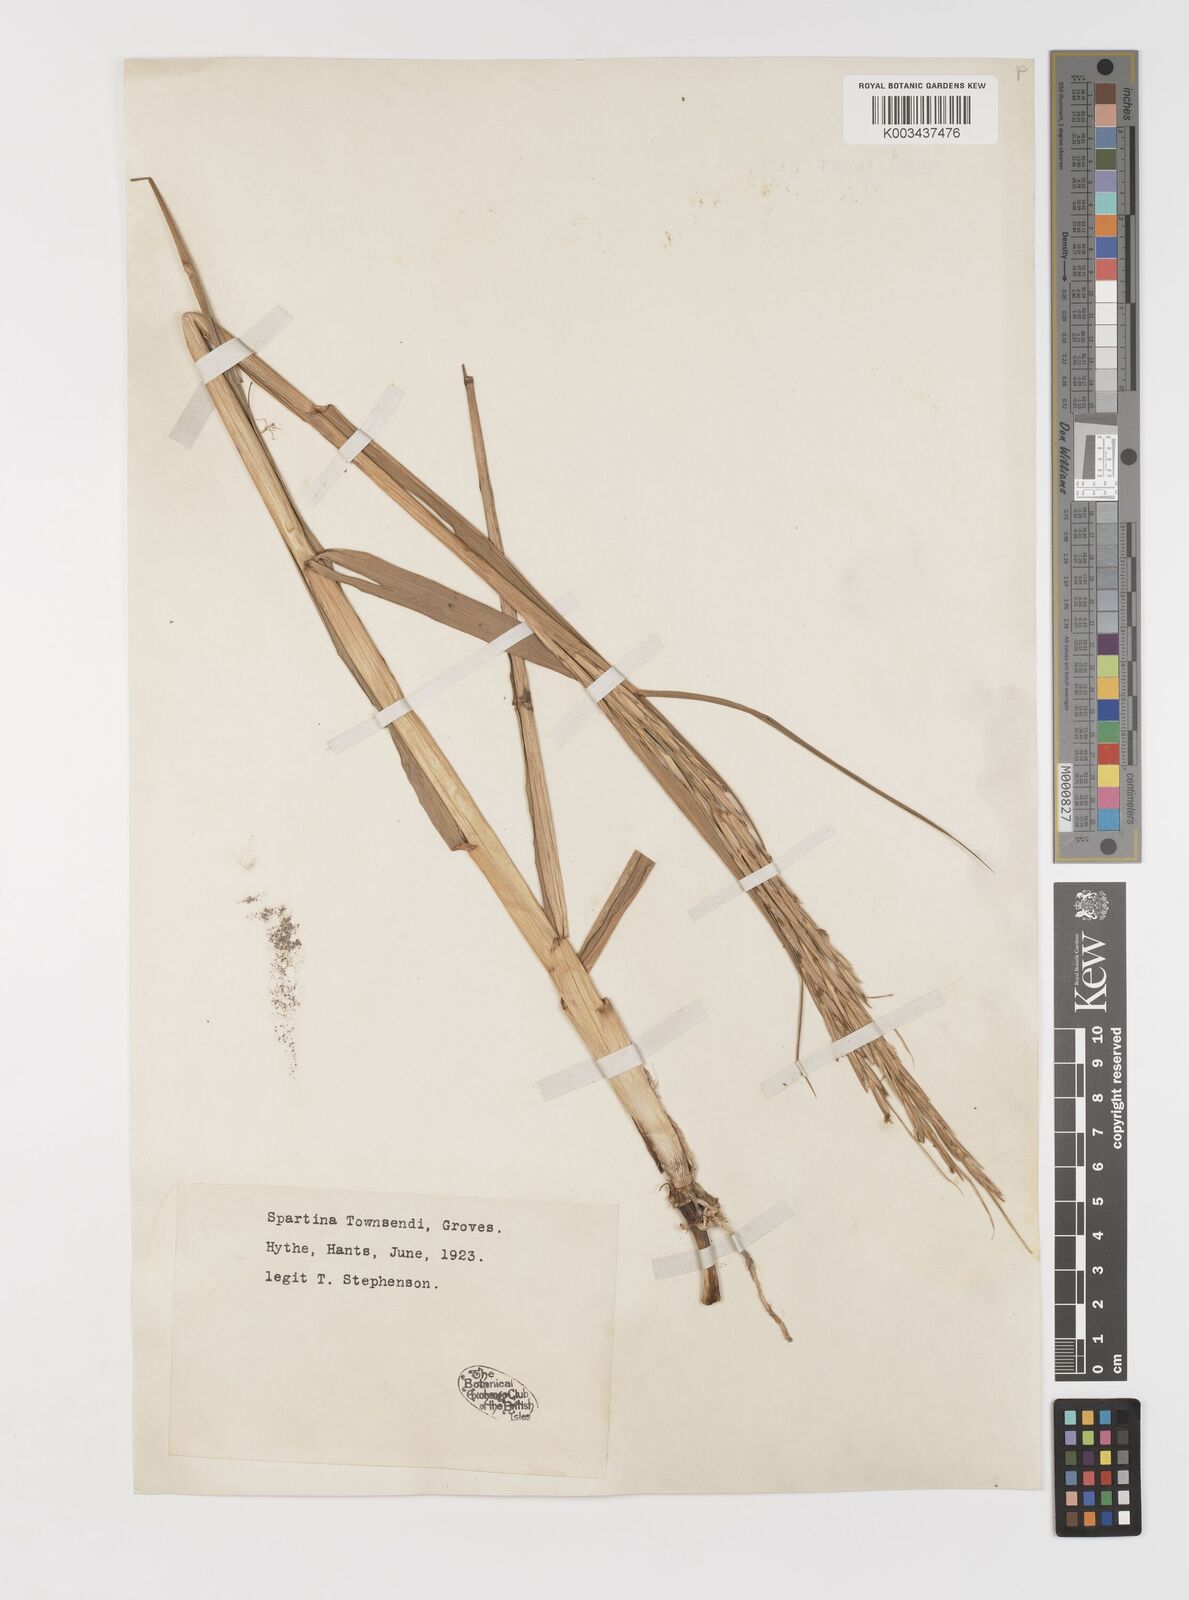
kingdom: Plantae
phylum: Tracheophyta
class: Liliopsida
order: Poales
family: Poaceae
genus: Sporobolus
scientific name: Sporobolus anglicus
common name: English cordgrass
